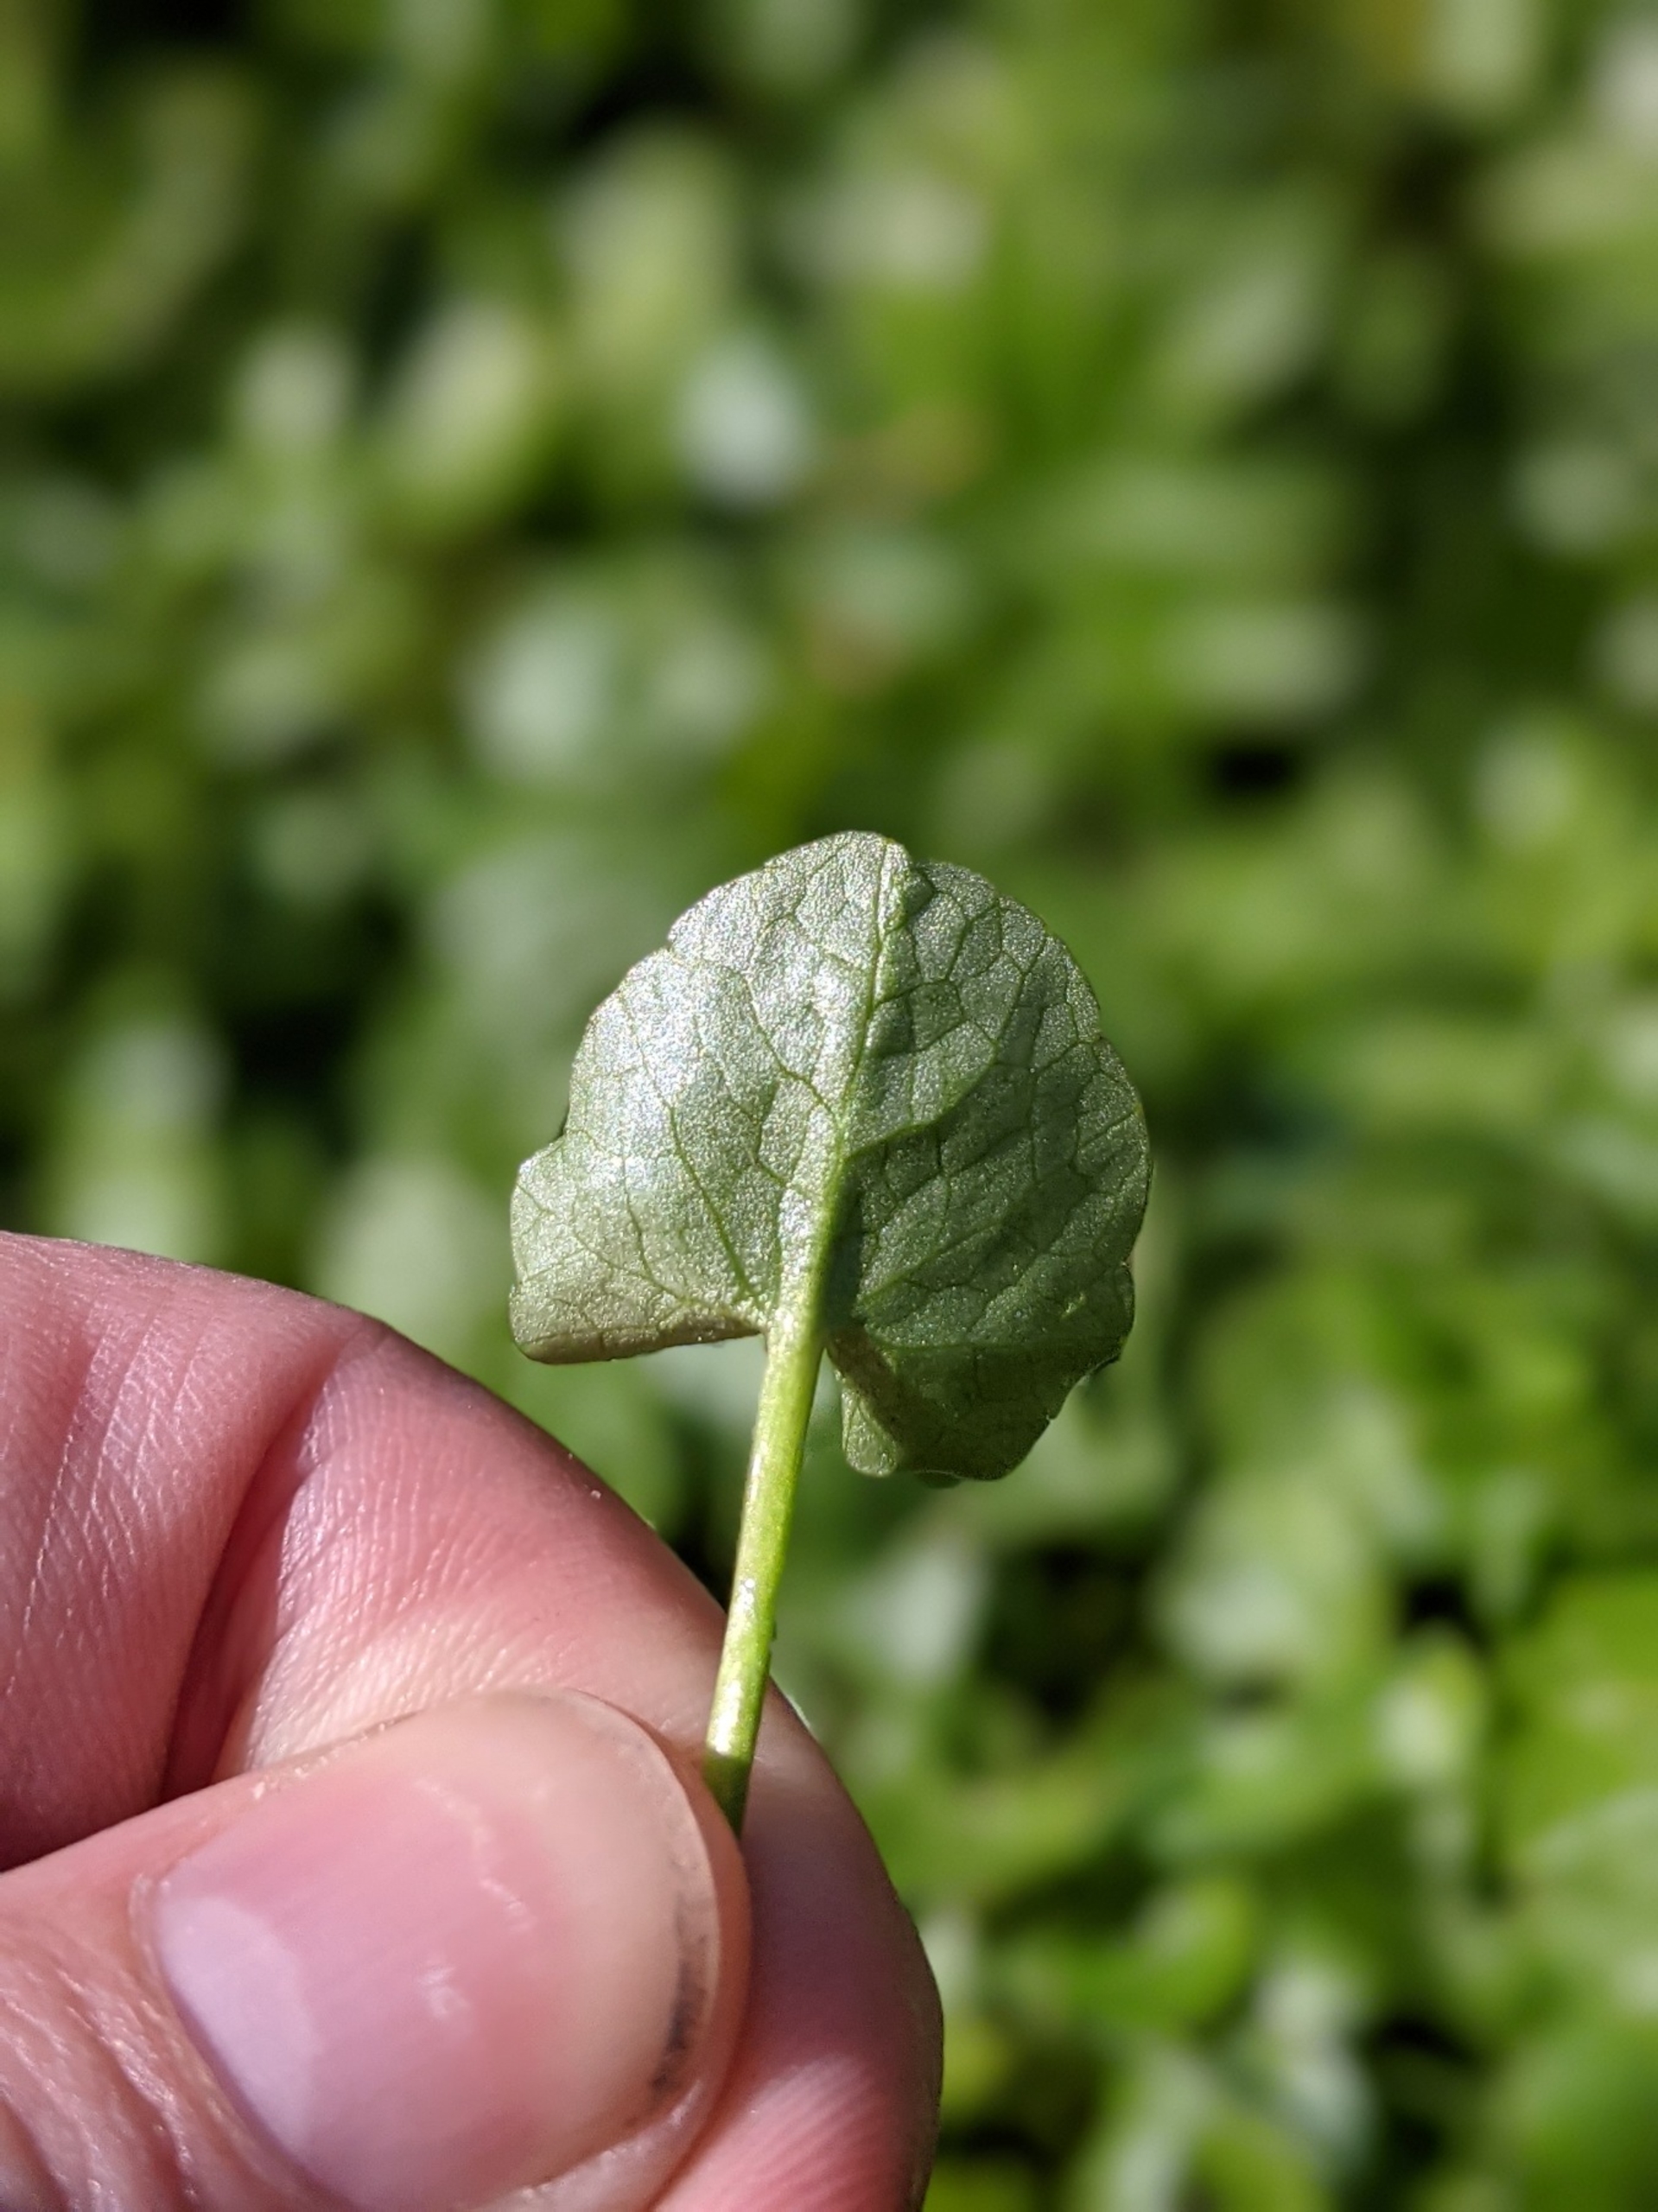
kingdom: Plantae
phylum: Tracheophyta
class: Magnoliopsida
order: Ranunculales
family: Ranunculaceae
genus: Ficaria
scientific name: Ficaria verna
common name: Vorterod
